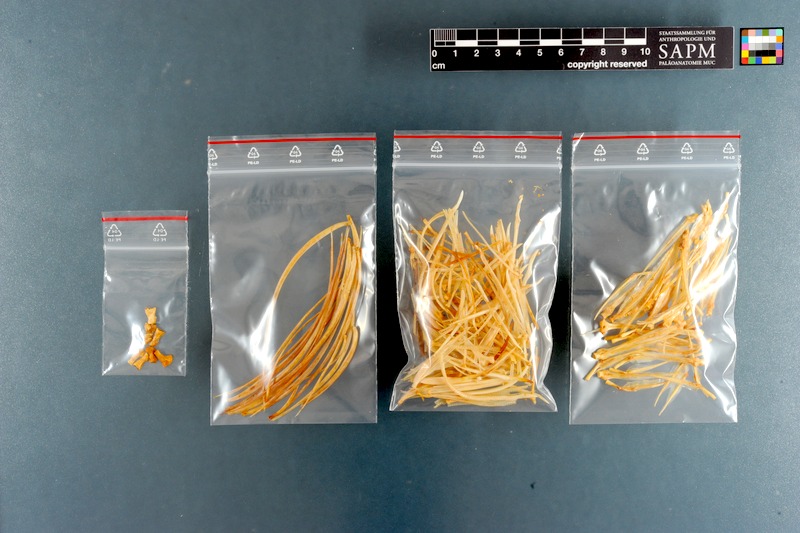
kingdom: Animalia
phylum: Chordata
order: Perciformes
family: Carangidae
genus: Seriola
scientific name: Seriola lalandi
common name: Yellowtail kingfish
